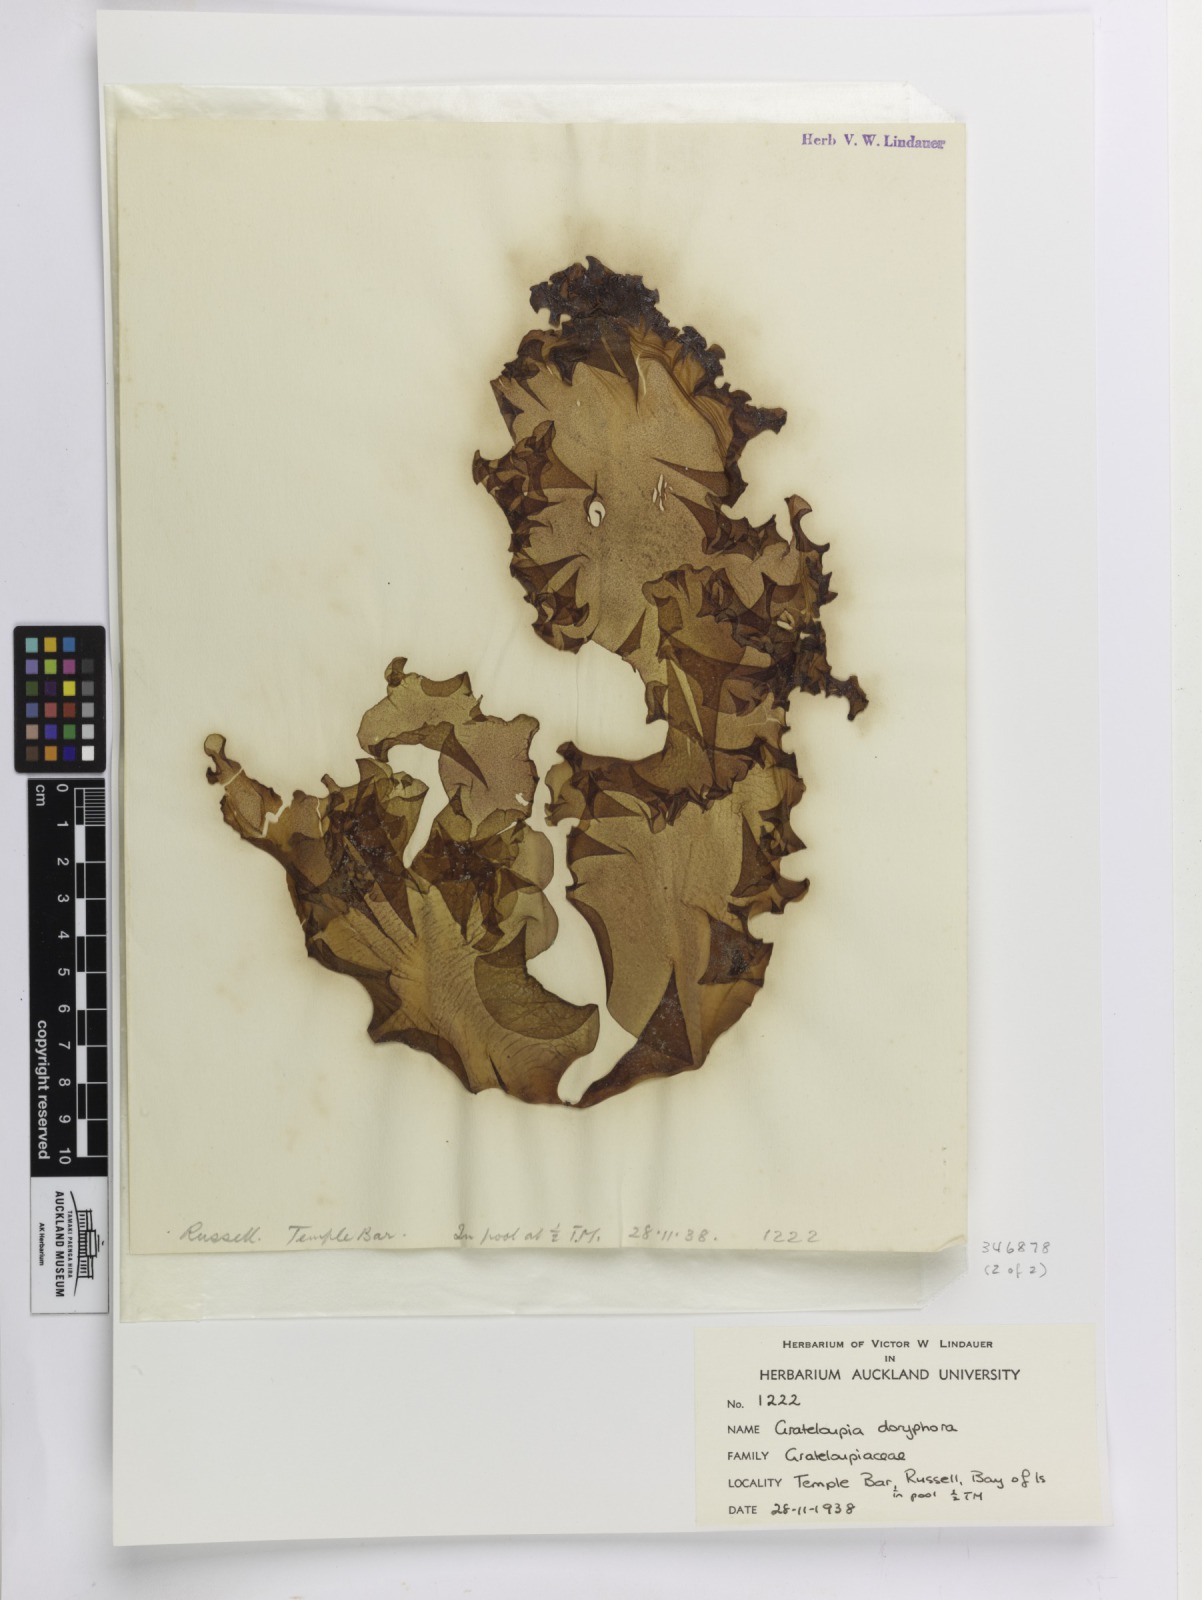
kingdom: Plantae
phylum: Rhodophyta
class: Florideophyceae
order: Nemastomatales
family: Schizymeniaceae
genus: Schizymenia
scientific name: Schizymenia novae-zelandiae
